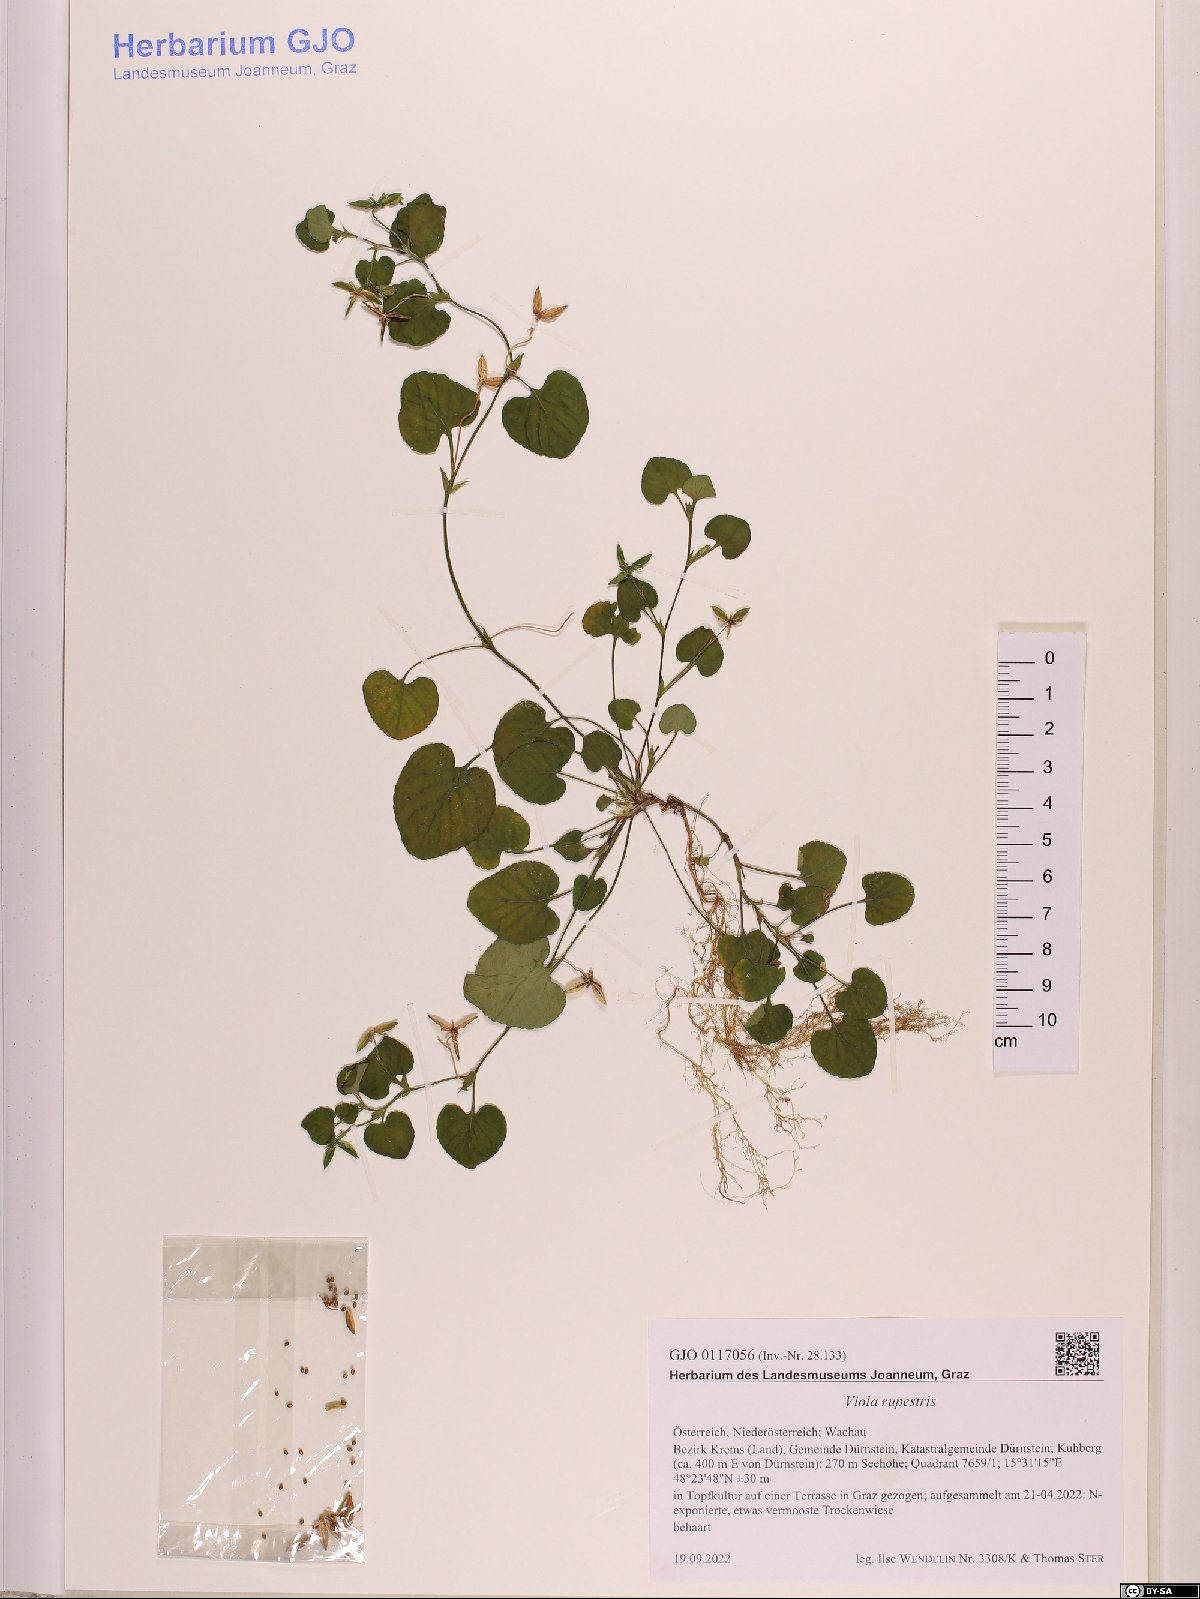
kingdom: Plantae
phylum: Tracheophyta
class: Magnoliopsida
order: Malpighiales
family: Violaceae
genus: Viola
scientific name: Viola rupestris
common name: Teesdale violet
